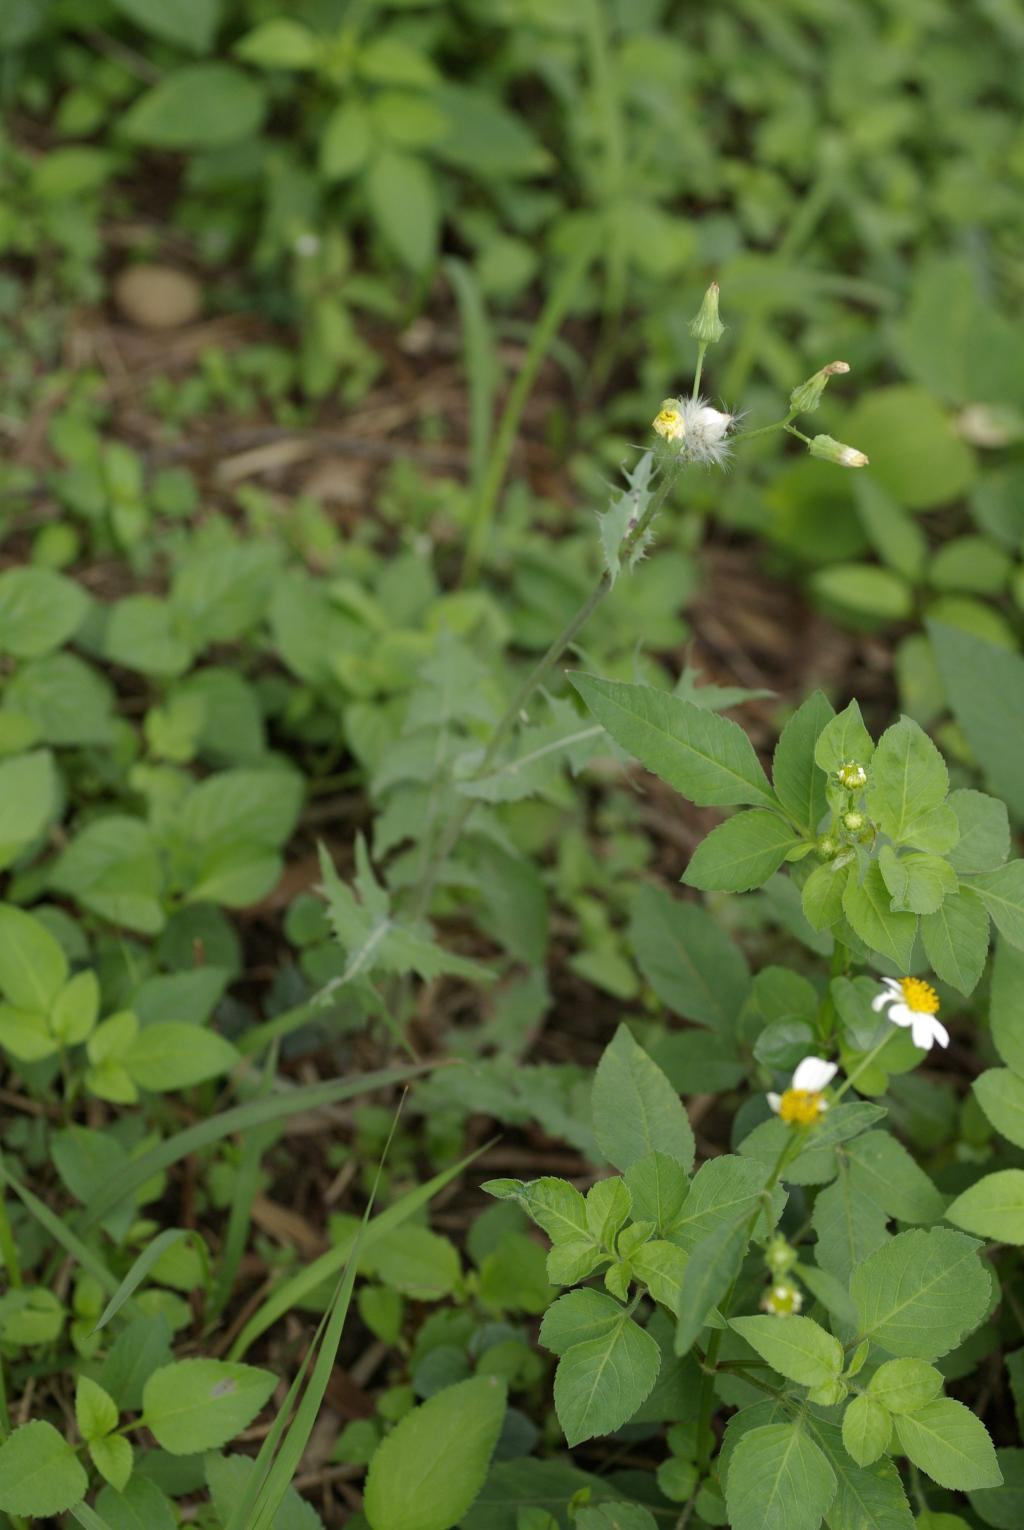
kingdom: Plantae
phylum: Tracheophyta
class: Magnoliopsida
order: Asterales
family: Asteraceae
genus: Sonchus
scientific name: Sonchus oleraceus
